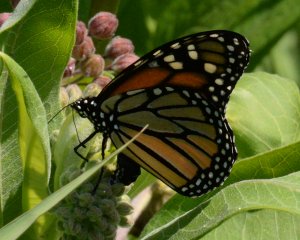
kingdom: Animalia
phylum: Arthropoda
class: Insecta
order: Lepidoptera
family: Nymphalidae
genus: Danaus
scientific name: Danaus plexippus
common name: Monarch
